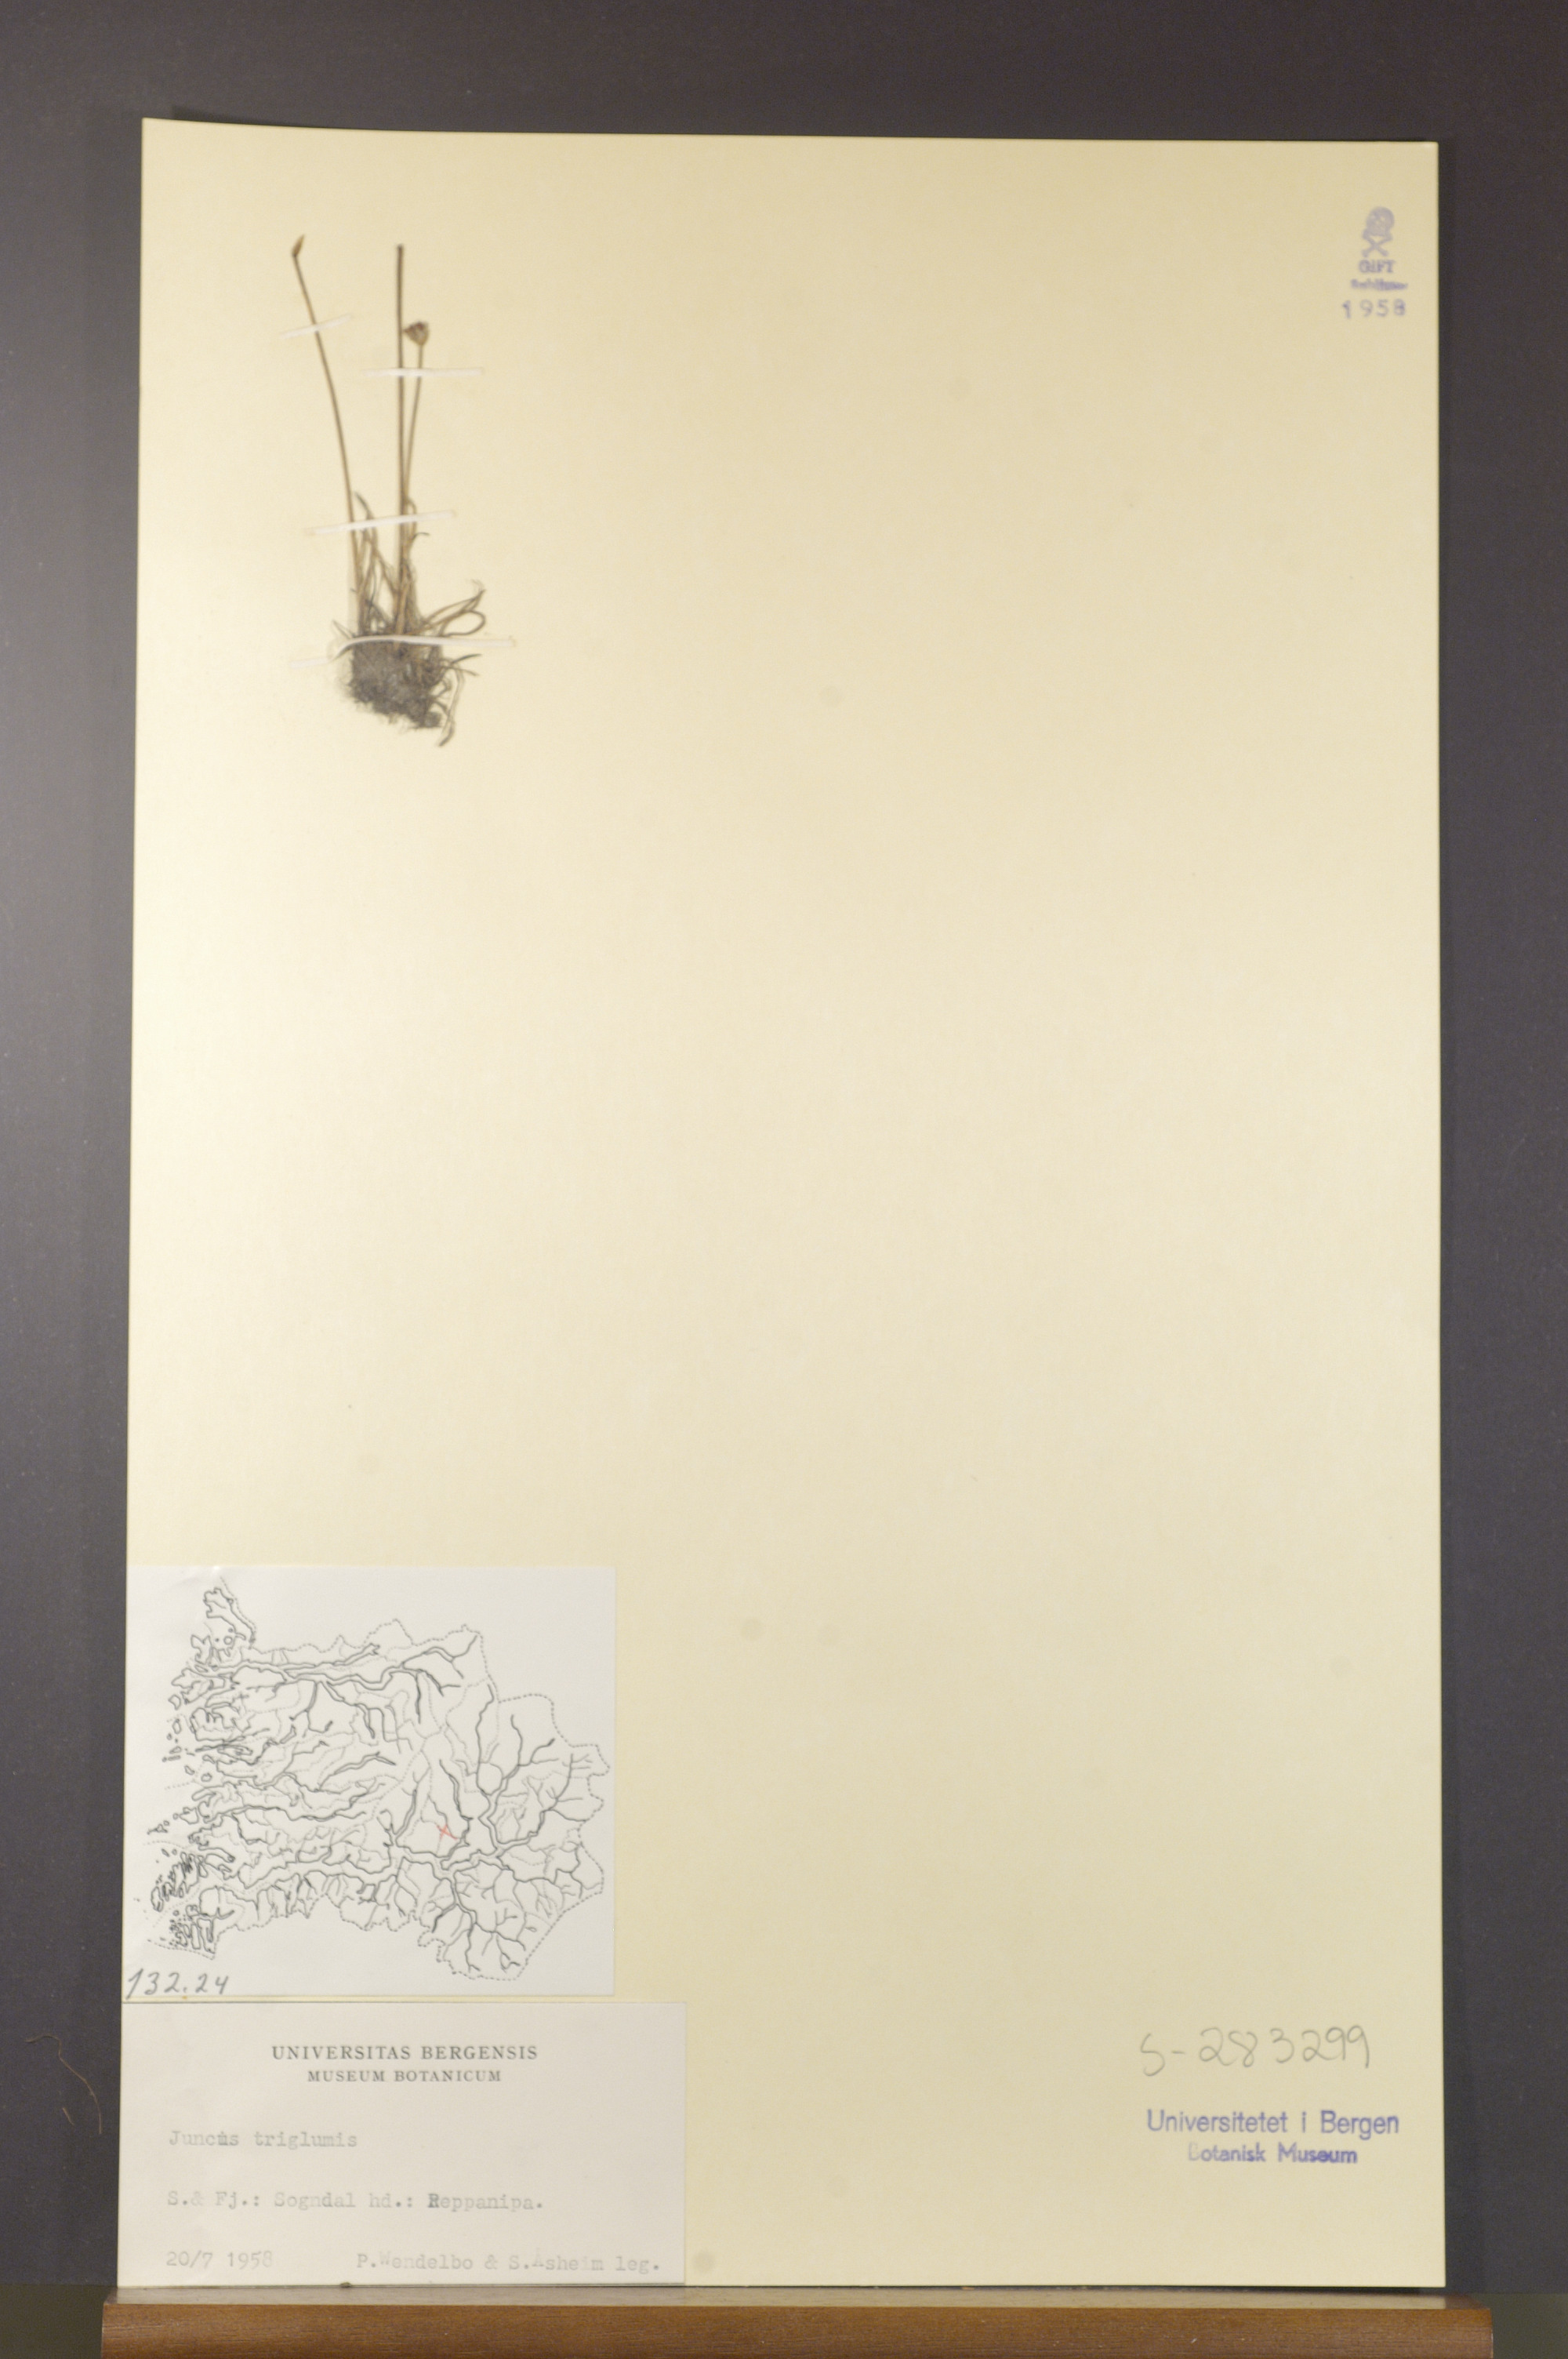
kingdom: Plantae
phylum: Tracheophyta
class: Liliopsida
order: Poales
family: Juncaceae
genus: Juncus
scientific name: Juncus triglumis
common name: Three-flowered rush
